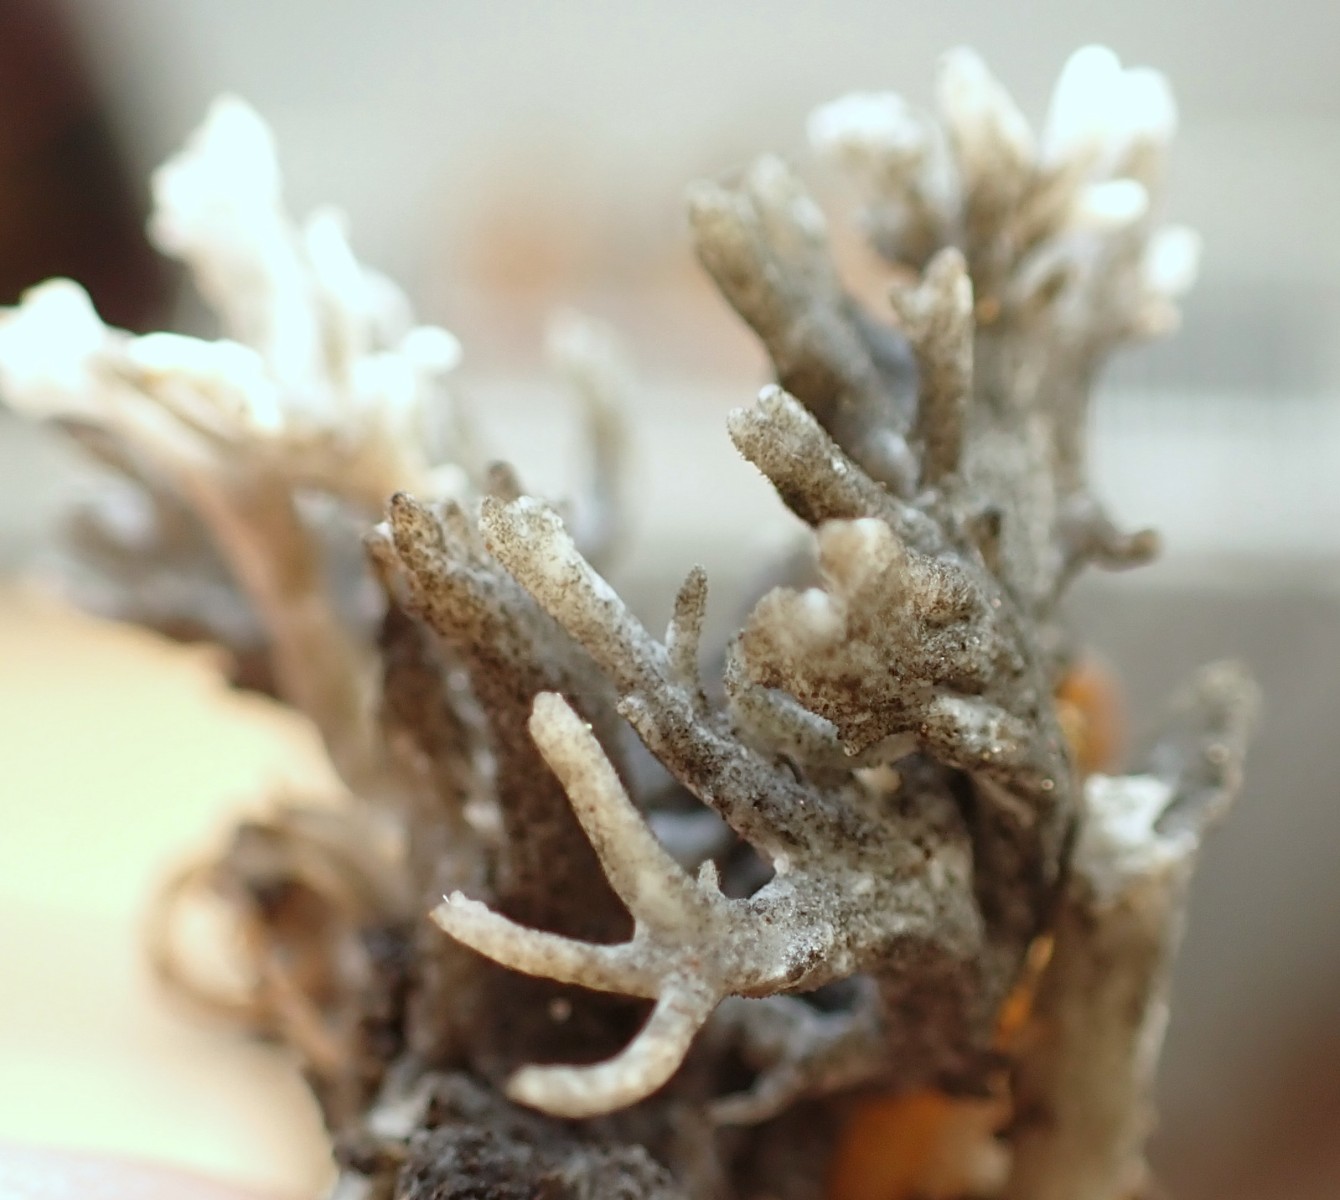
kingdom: Fungi
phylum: Ascomycota
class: Sordariomycetes
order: Sordariales
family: Helminthosphaeriaceae
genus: Helminthosphaeria
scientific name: Helminthosphaeria clavariarum
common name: trold-svampesnyltekerne
